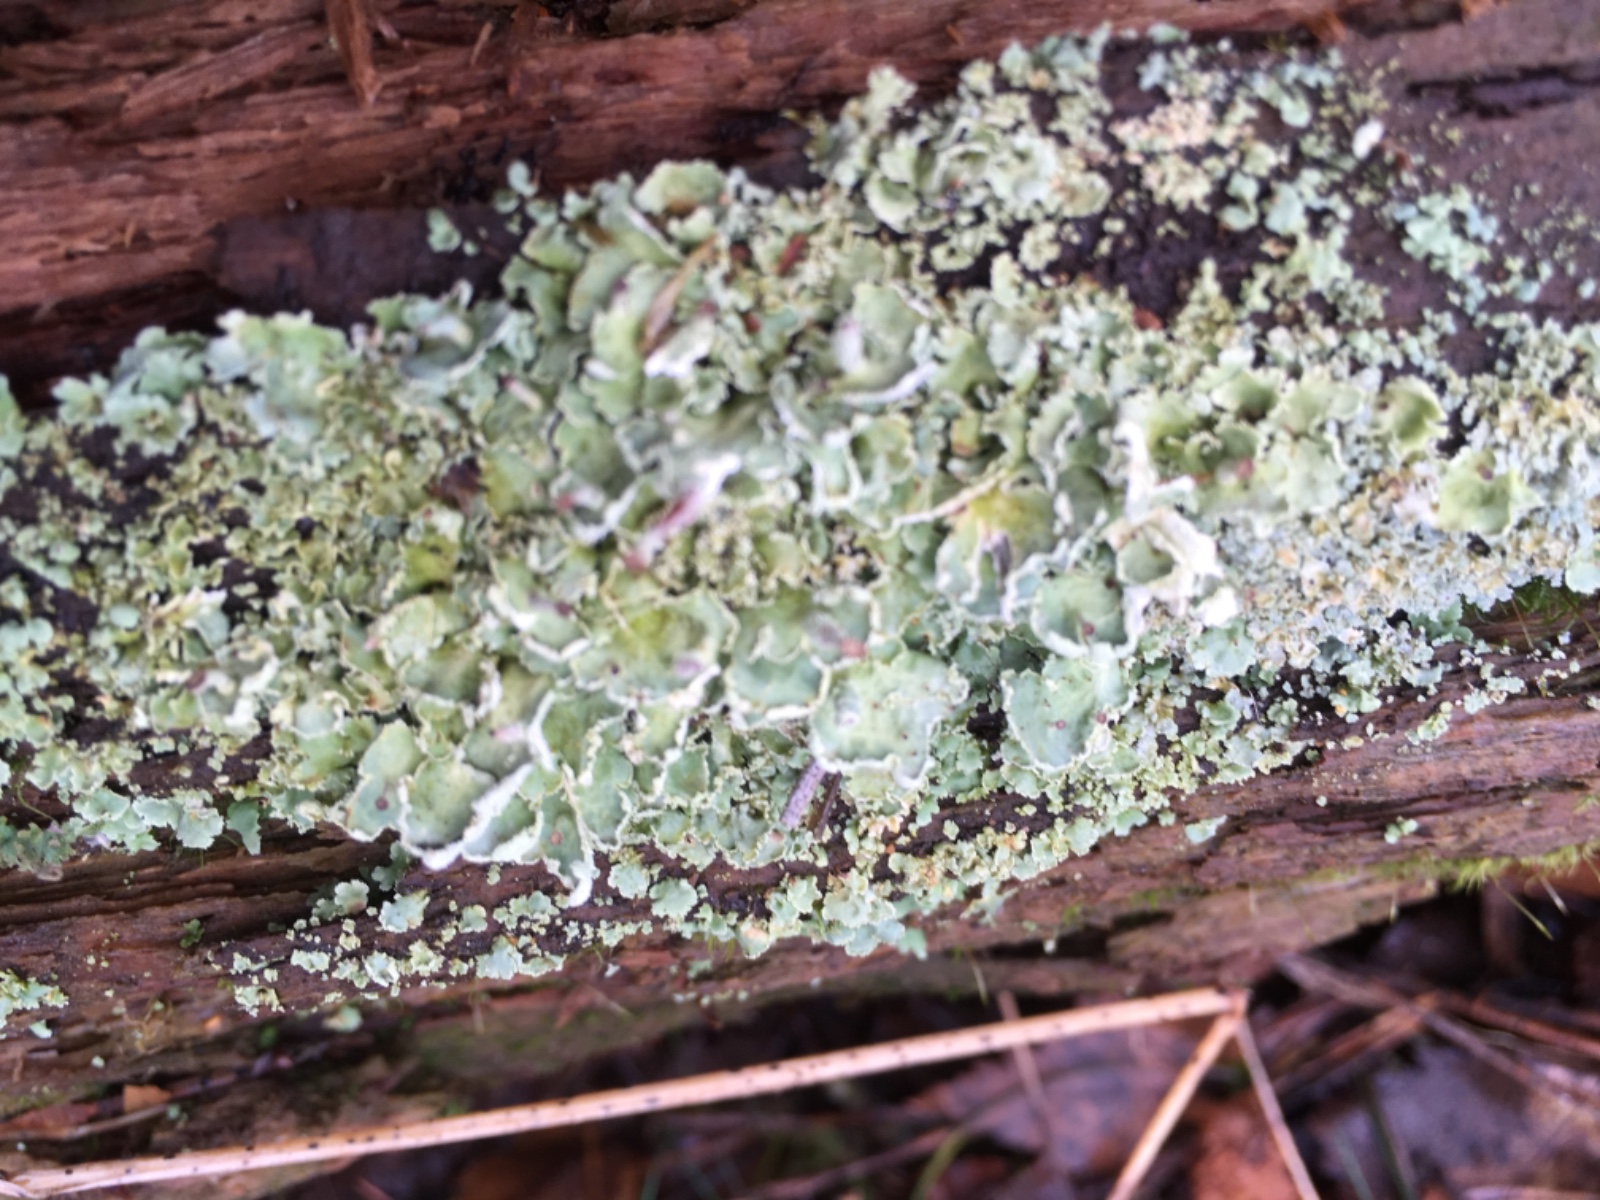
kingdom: Fungi
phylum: Ascomycota
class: Lecanoromycetes
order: Lecanorales
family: Cladoniaceae
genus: Cladonia
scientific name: Cladonia digitata
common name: finger-bægerlav
